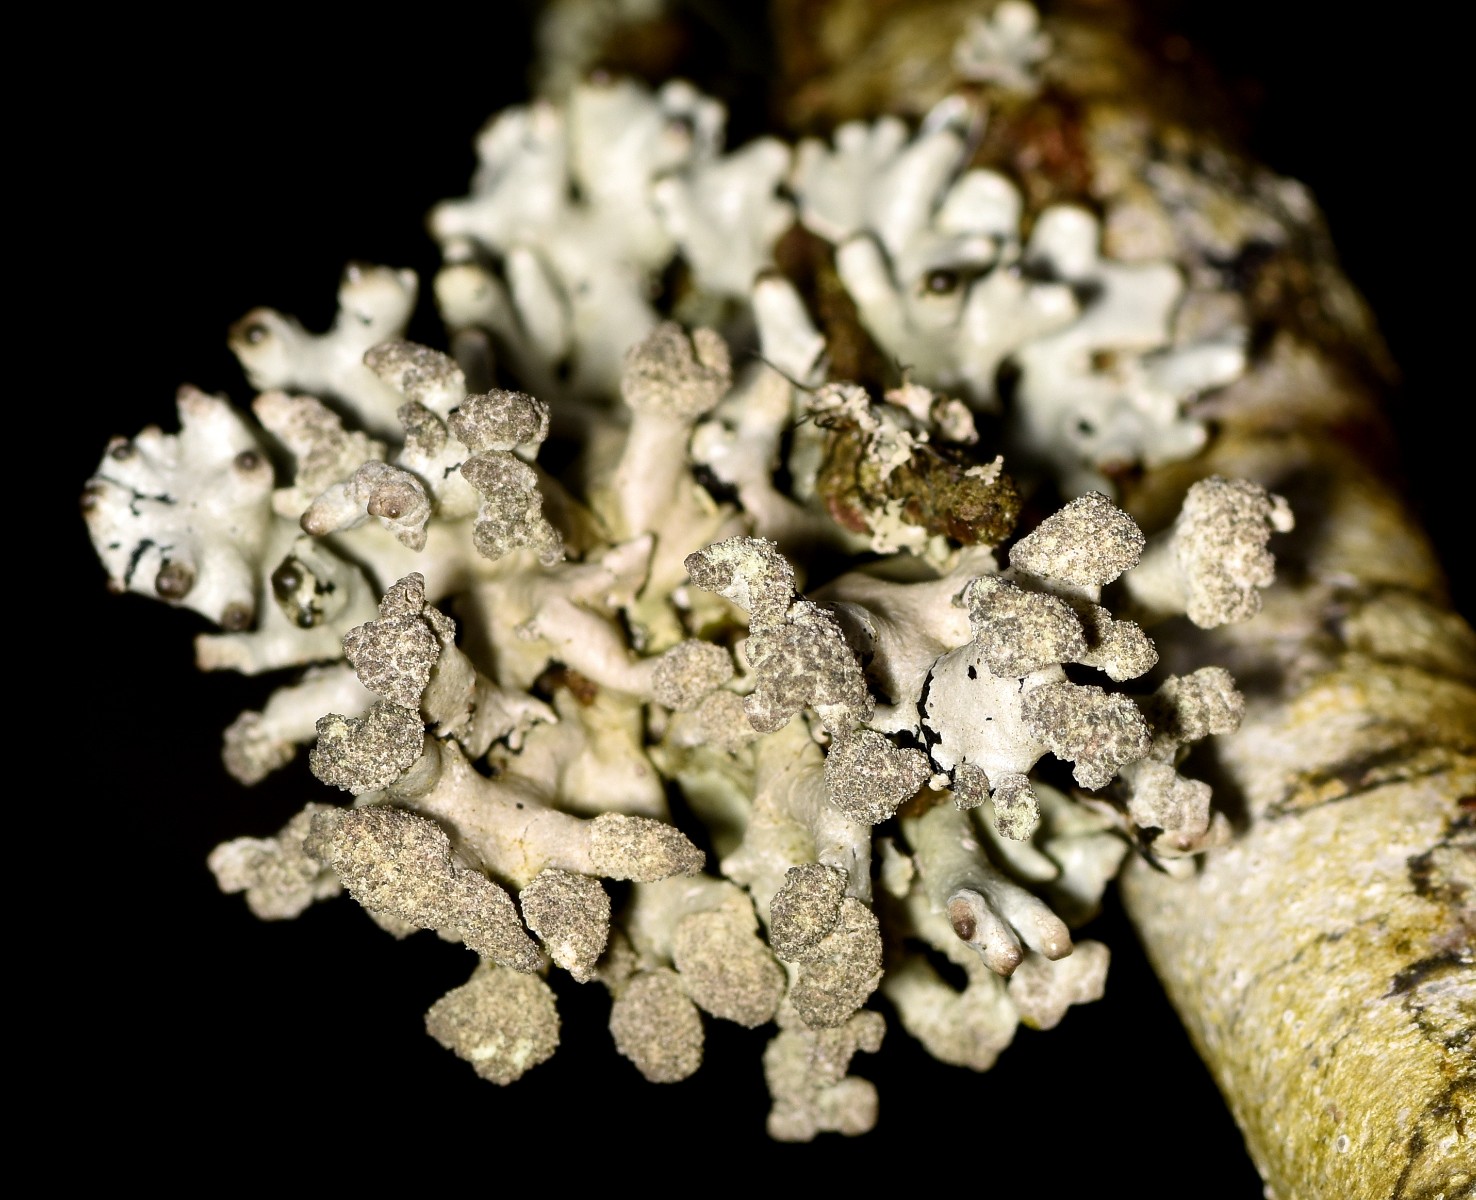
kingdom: Fungi
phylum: Ascomycota
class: Lecanoromycetes
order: Lecanorales
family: Parmeliaceae
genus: Hypogymnia
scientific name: Hypogymnia tubulosa
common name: finger-kvistlav
